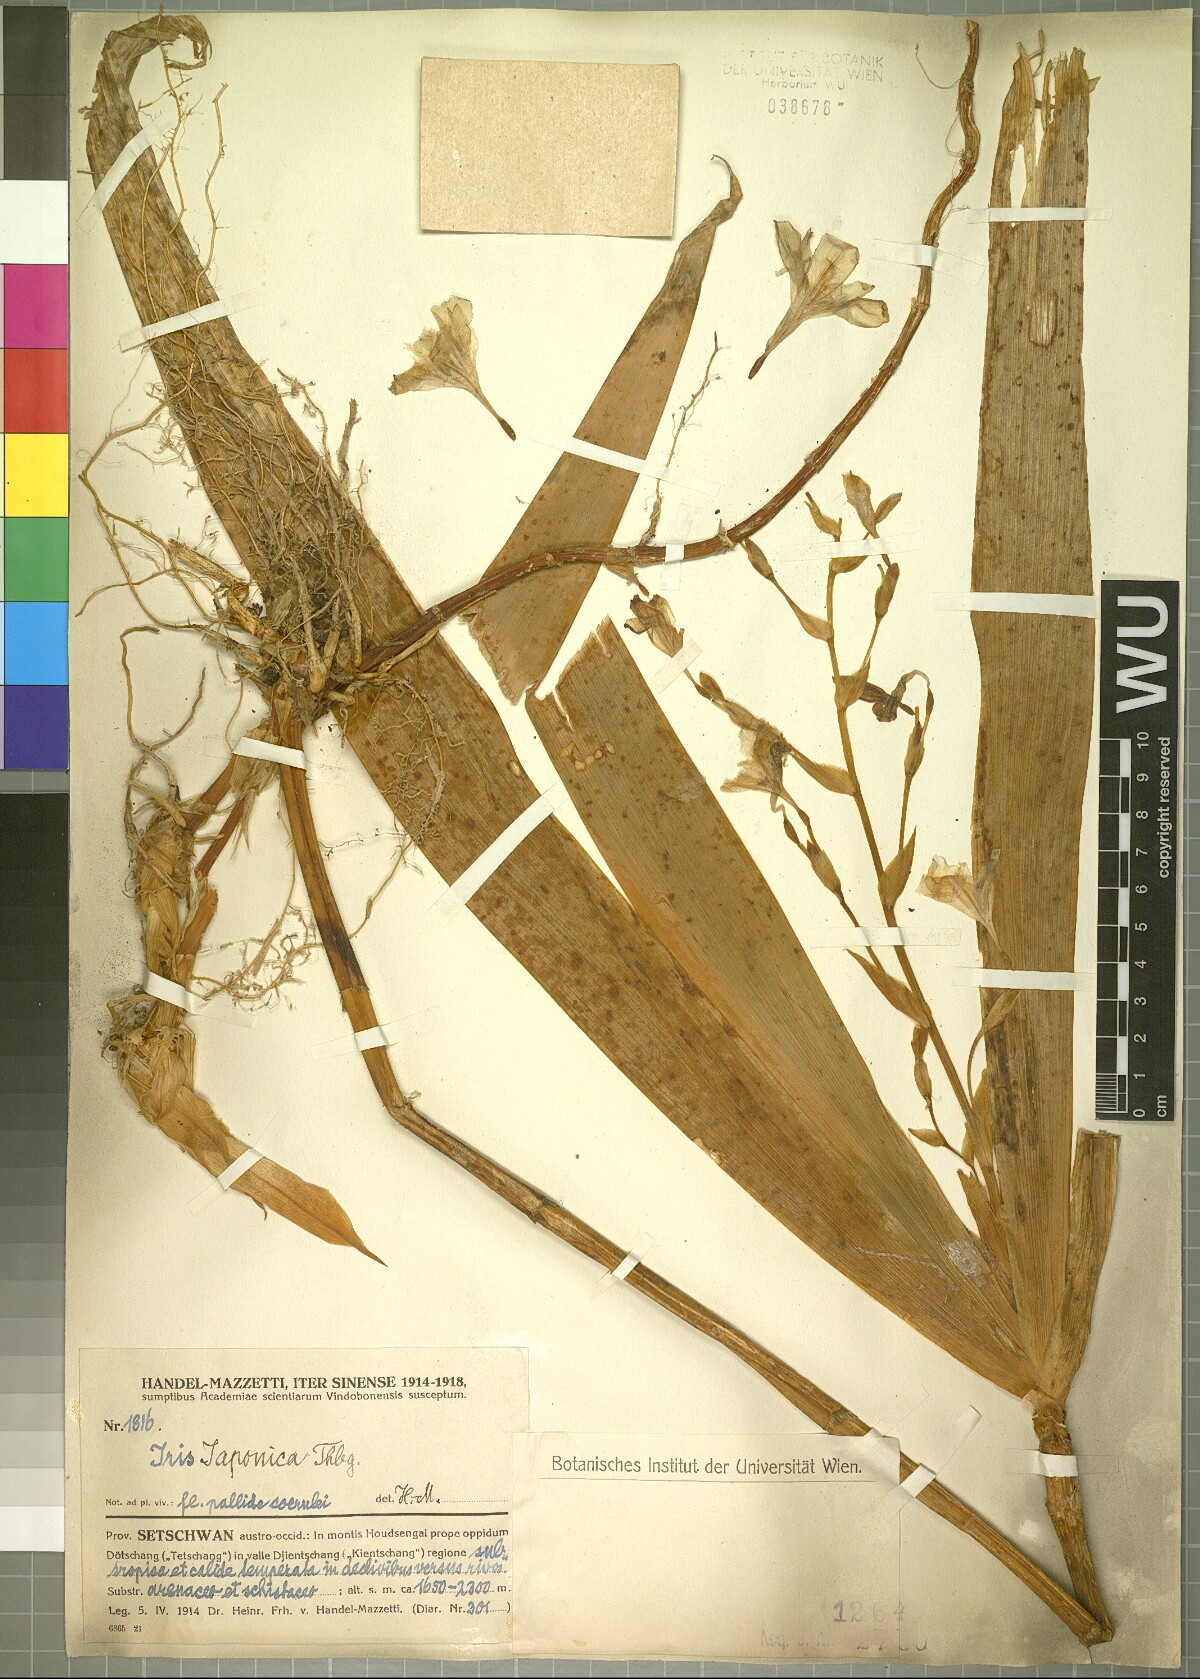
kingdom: Plantae
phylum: Tracheophyta
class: Liliopsida
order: Asparagales
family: Iridaceae
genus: Iris
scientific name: Iris japonica
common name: Butterfly-flower
